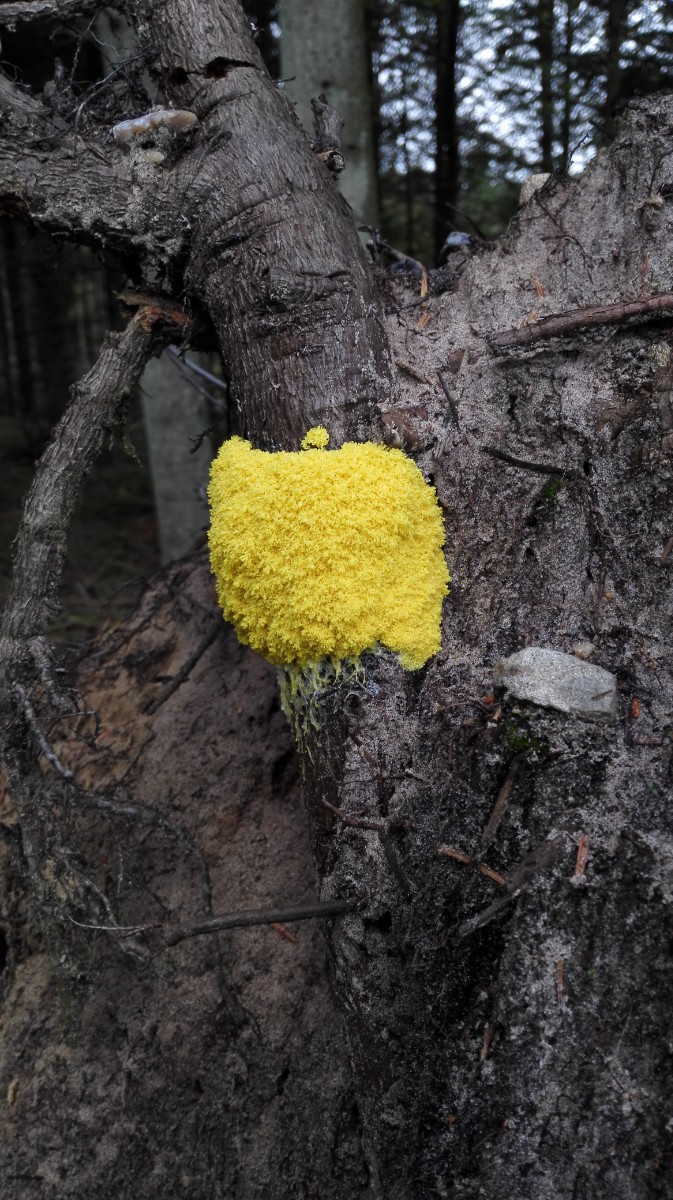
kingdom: Protozoa
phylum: Mycetozoa
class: Myxomycetes
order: Physarales
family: Physaraceae
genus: Fuligo
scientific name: Fuligo septica
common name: gul troldsmør
